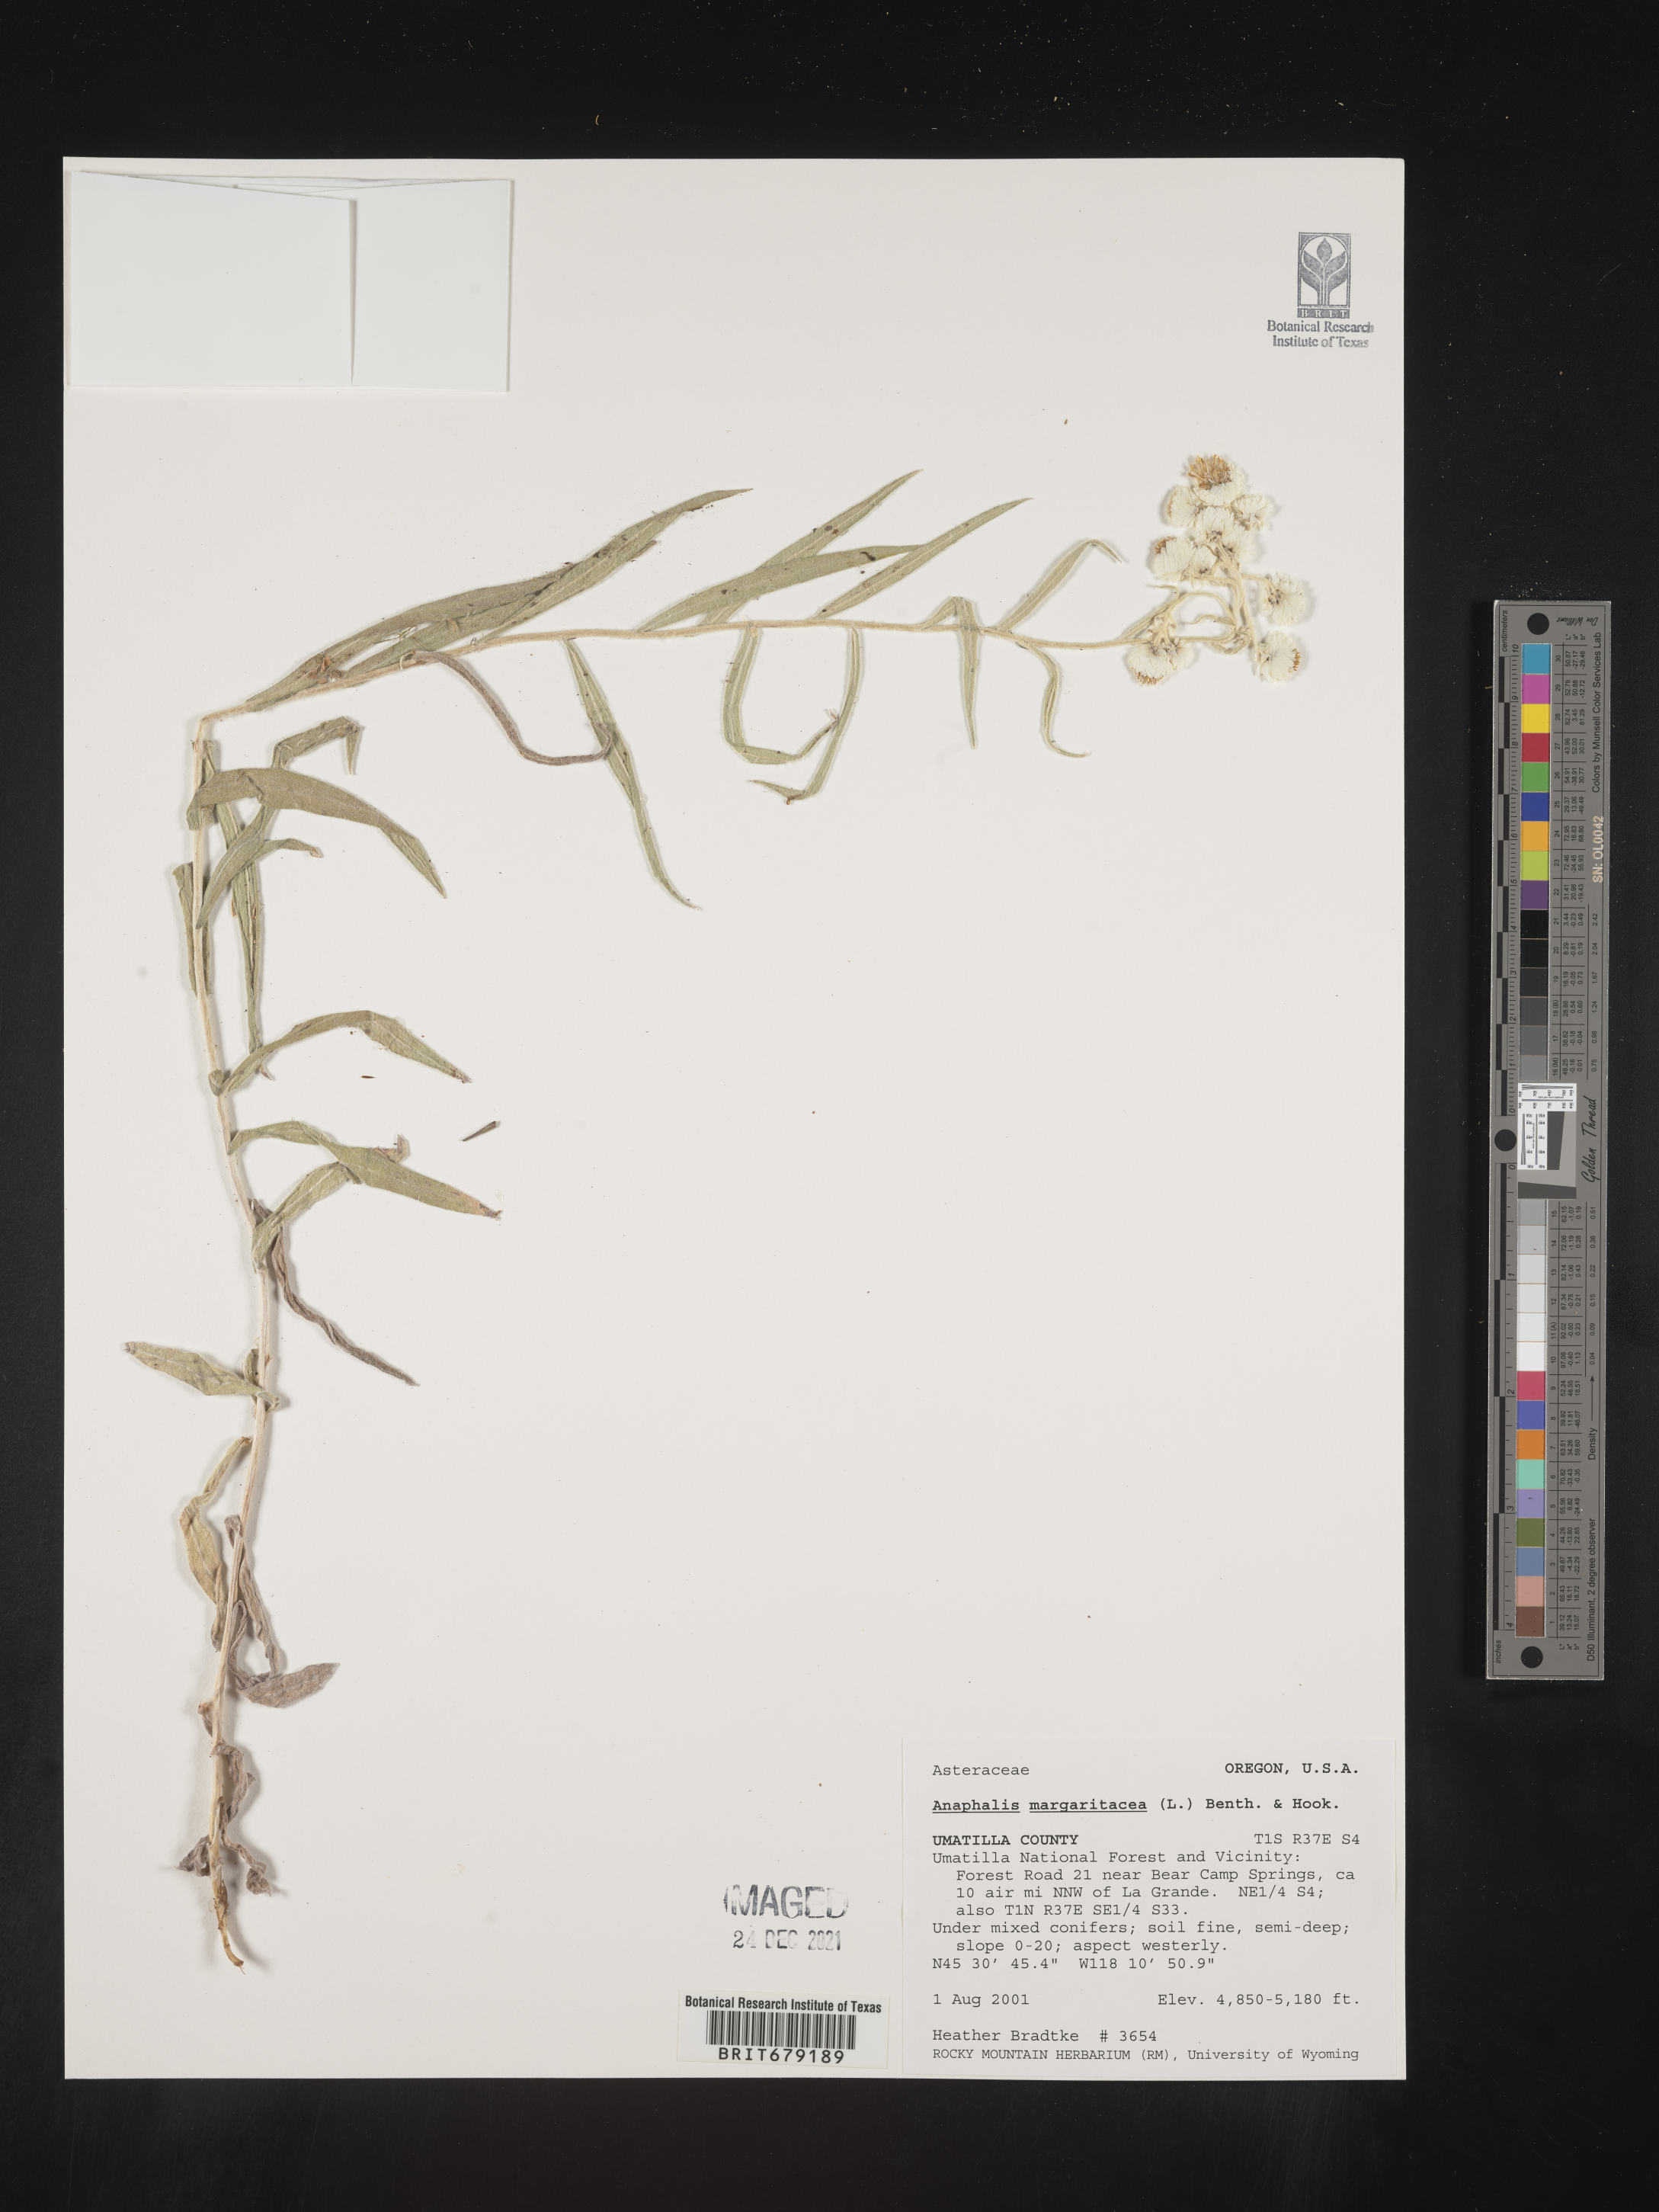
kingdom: Plantae
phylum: Tracheophyta
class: Magnoliopsida
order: Asterales
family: Asteraceae
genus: Anaphalis
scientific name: Anaphalis margaritacea
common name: Pearly everlasting
